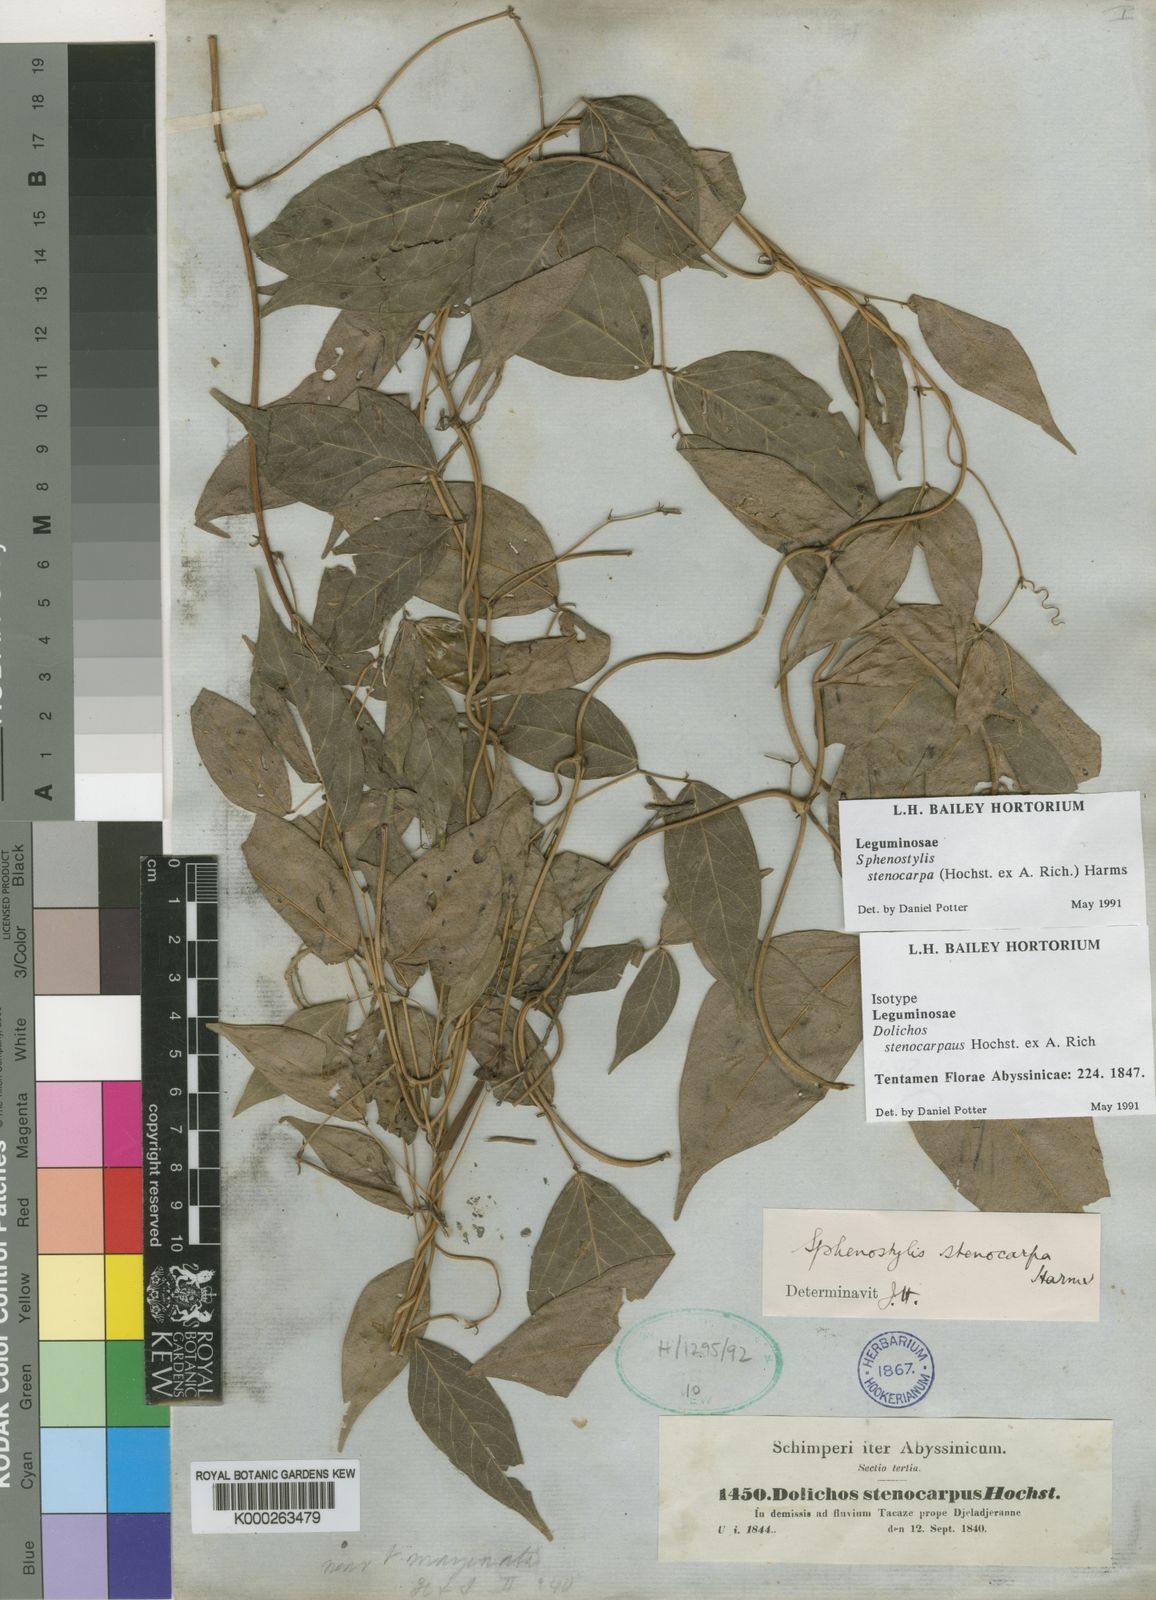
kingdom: Plantae
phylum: Tracheophyta
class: Magnoliopsida
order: Fabales
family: Fabaceae
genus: Sphenostylis
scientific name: Sphenostylis stenocarpa
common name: Yam-pea
